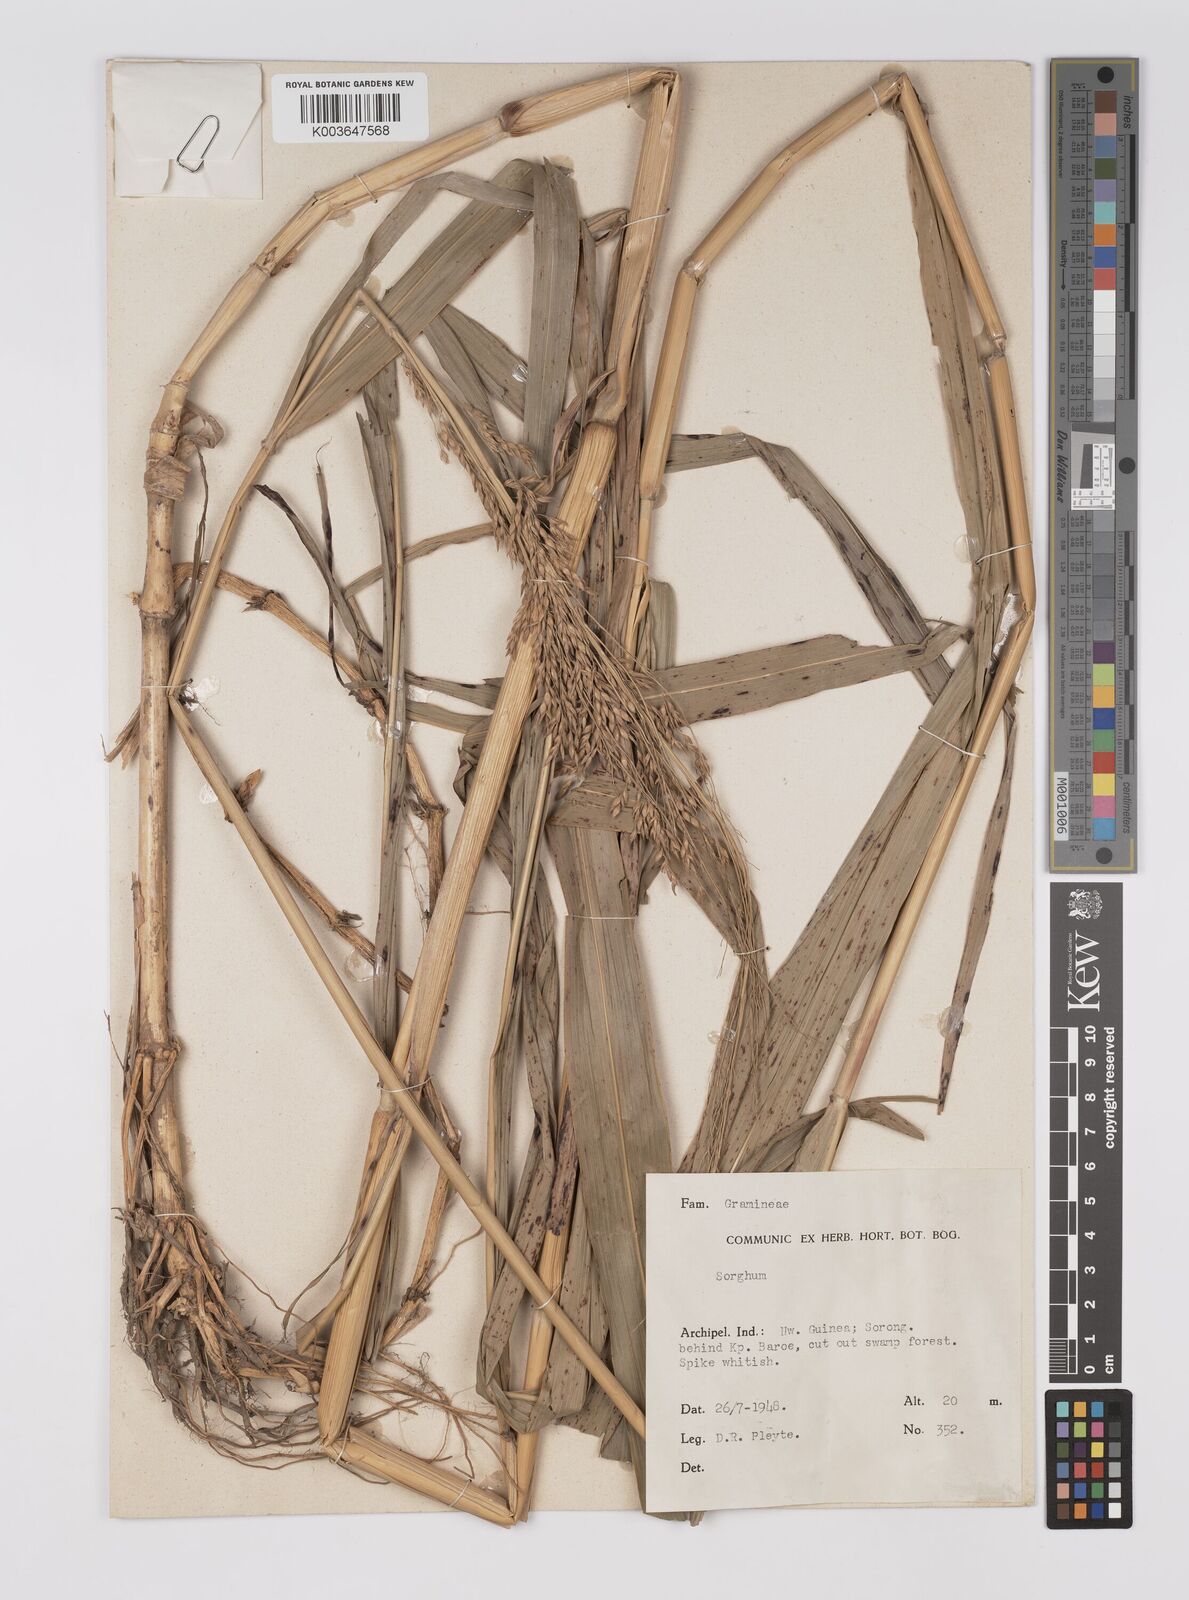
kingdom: Plantae
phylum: Tracheophyta
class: Liliopsida
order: Poales
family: Poaceae
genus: Sorghum
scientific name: Sorghum propinquum
